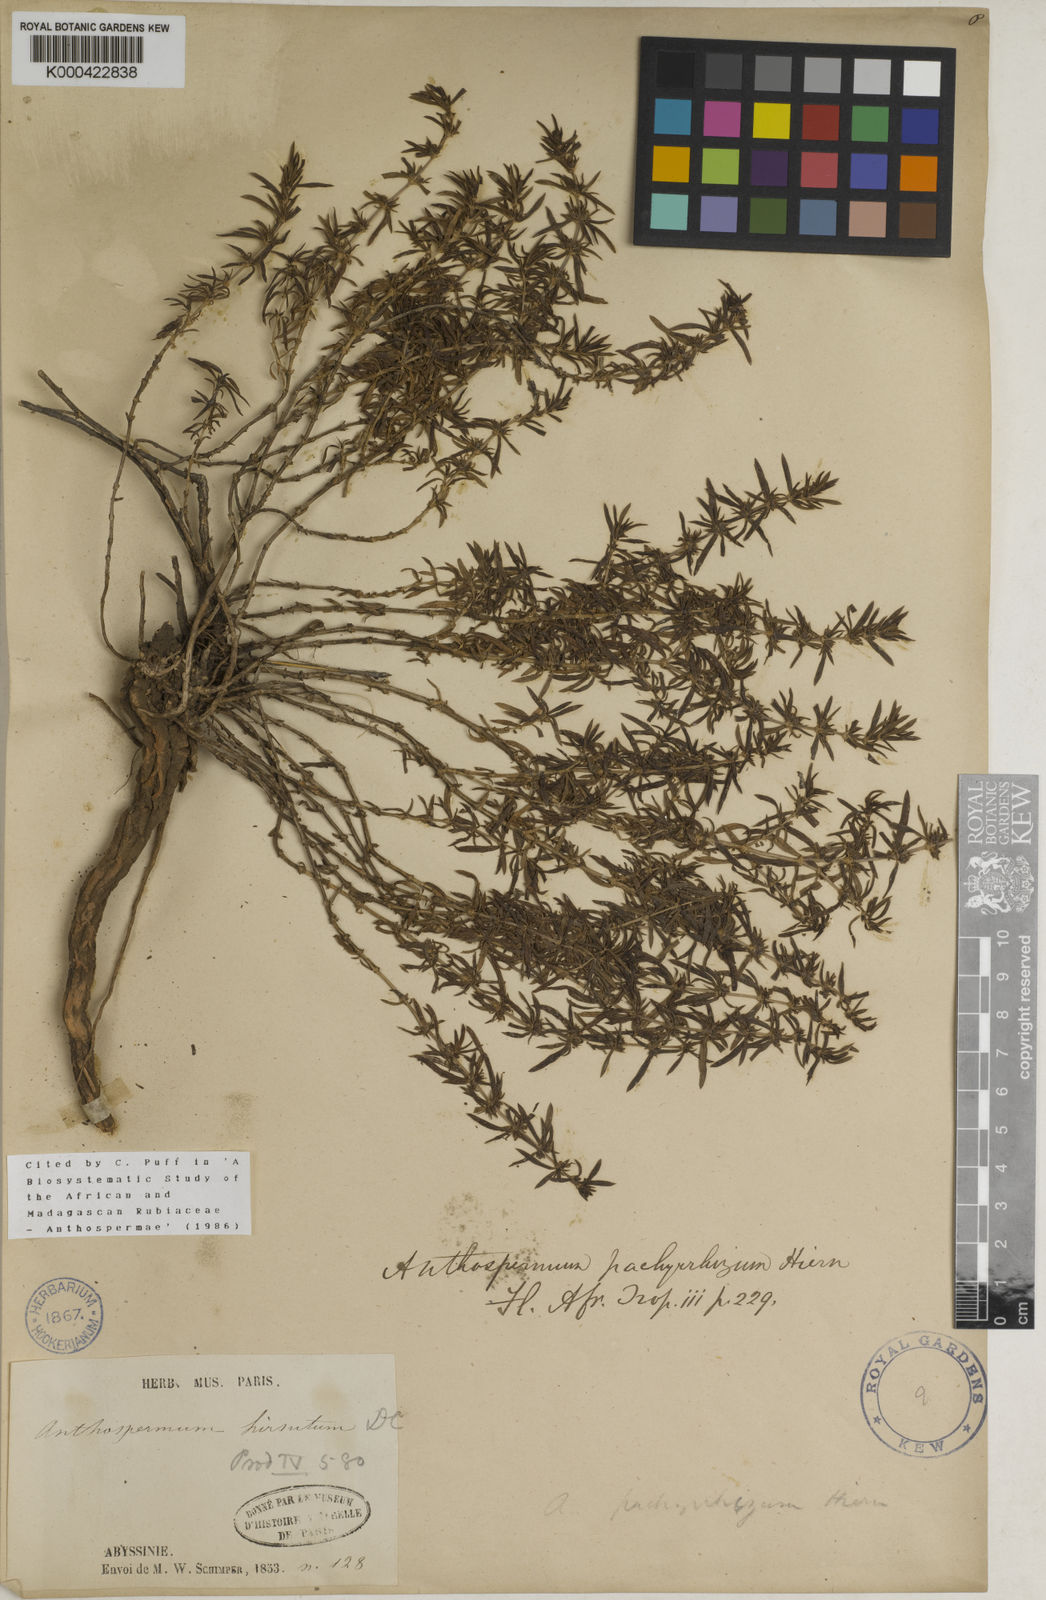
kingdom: Plantae
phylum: Tracheophyta
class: Magnoliopsida
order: Gentianales
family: Rubiaceae
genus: Anthospermum
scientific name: Anthospermum pachyrrhizum
